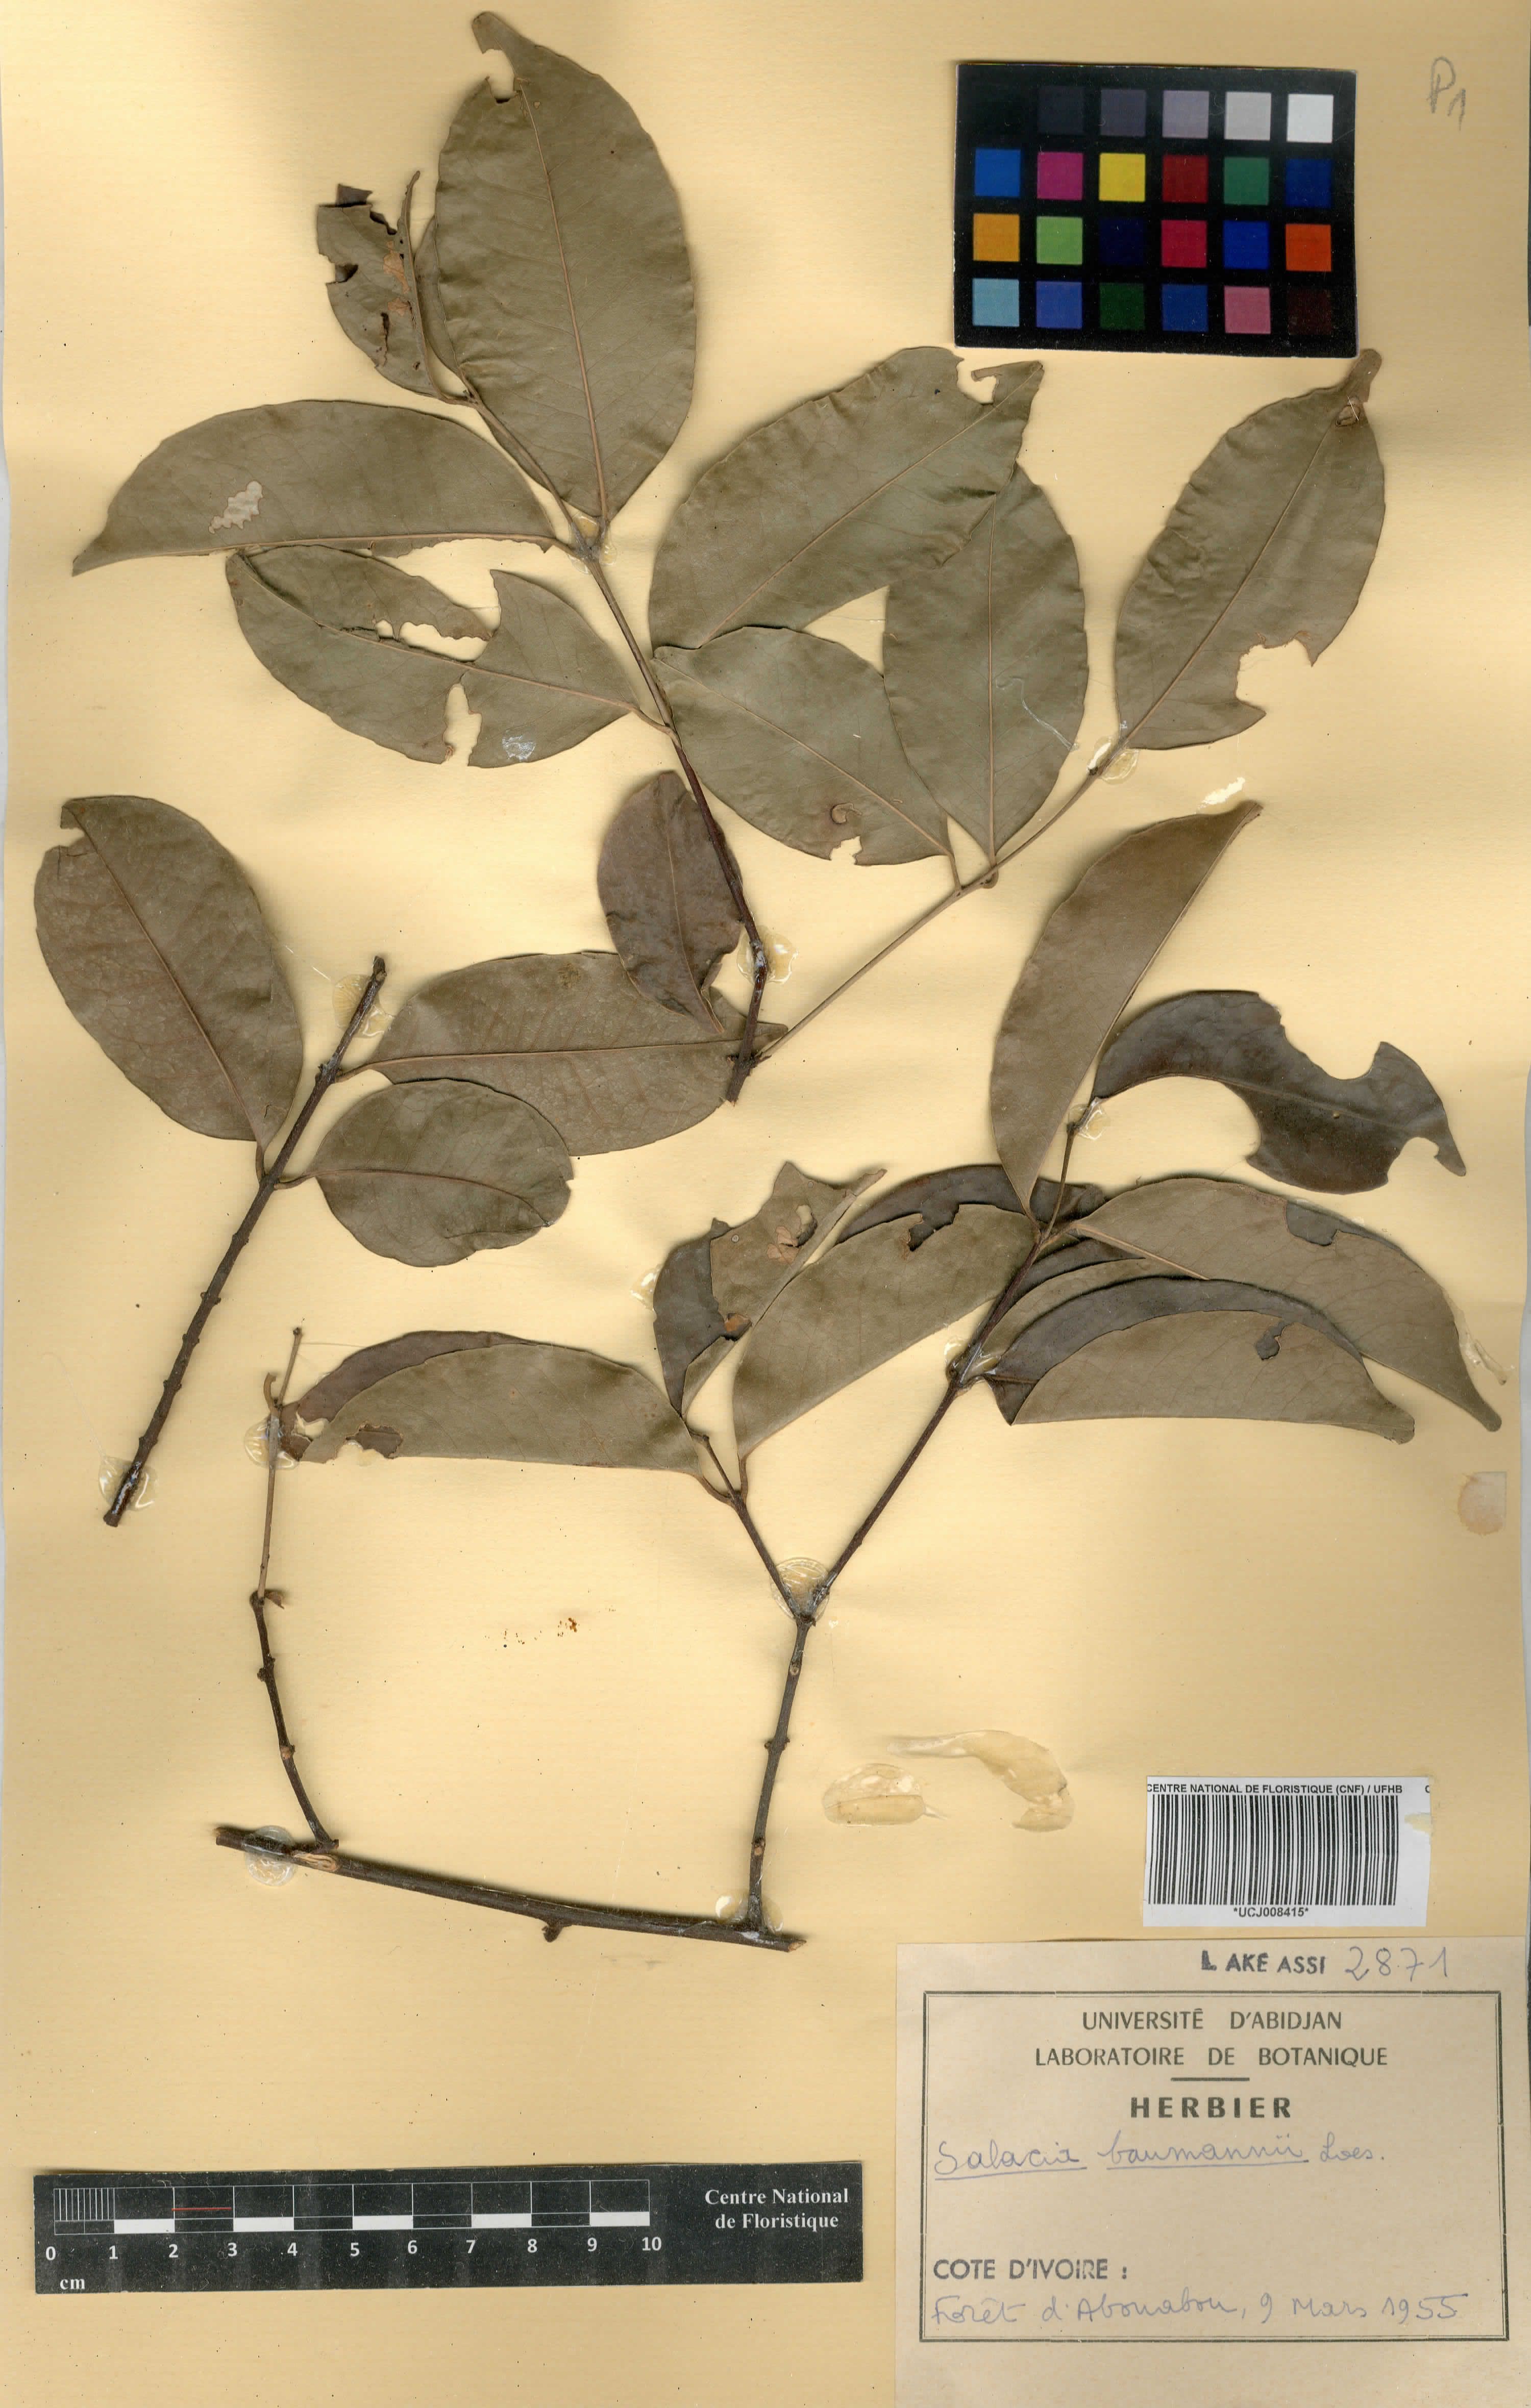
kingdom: Plantae
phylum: Tracheophyta
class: Magnoliopsida
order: Celastrales
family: Celastraceae
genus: Salacia
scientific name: Salacia leptoclada
